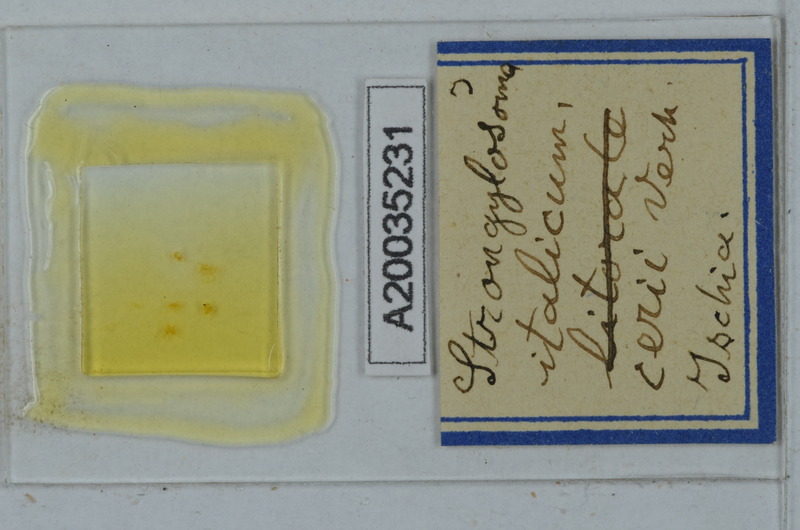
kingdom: Animalia
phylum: Arthropoda
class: Diplopoda
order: Polydesmida
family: Paradoxosomatidae
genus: Stosatea
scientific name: Stosatea italicum
